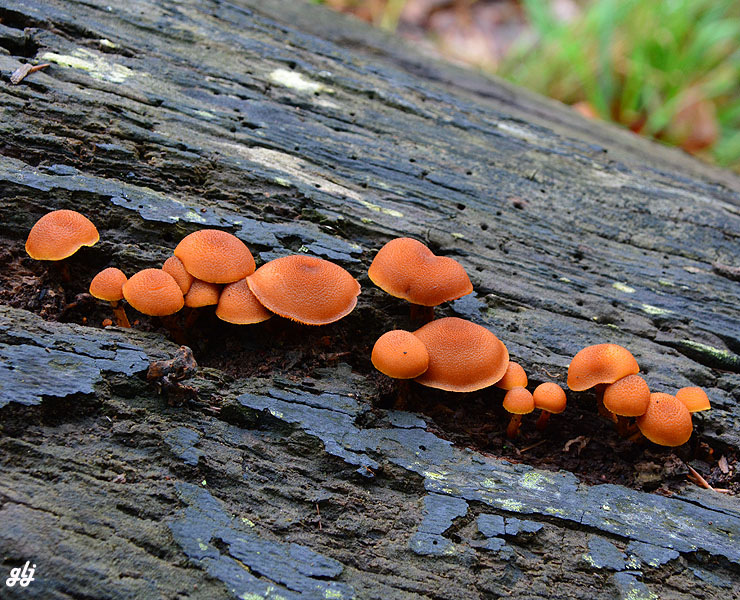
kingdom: Fungi
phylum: Basidiomycota
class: Agaricomycetes
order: Agaricales
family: Tubariaceae
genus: Flammulaster
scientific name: Flammulaster limulatus
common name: gylden grynskælhat
